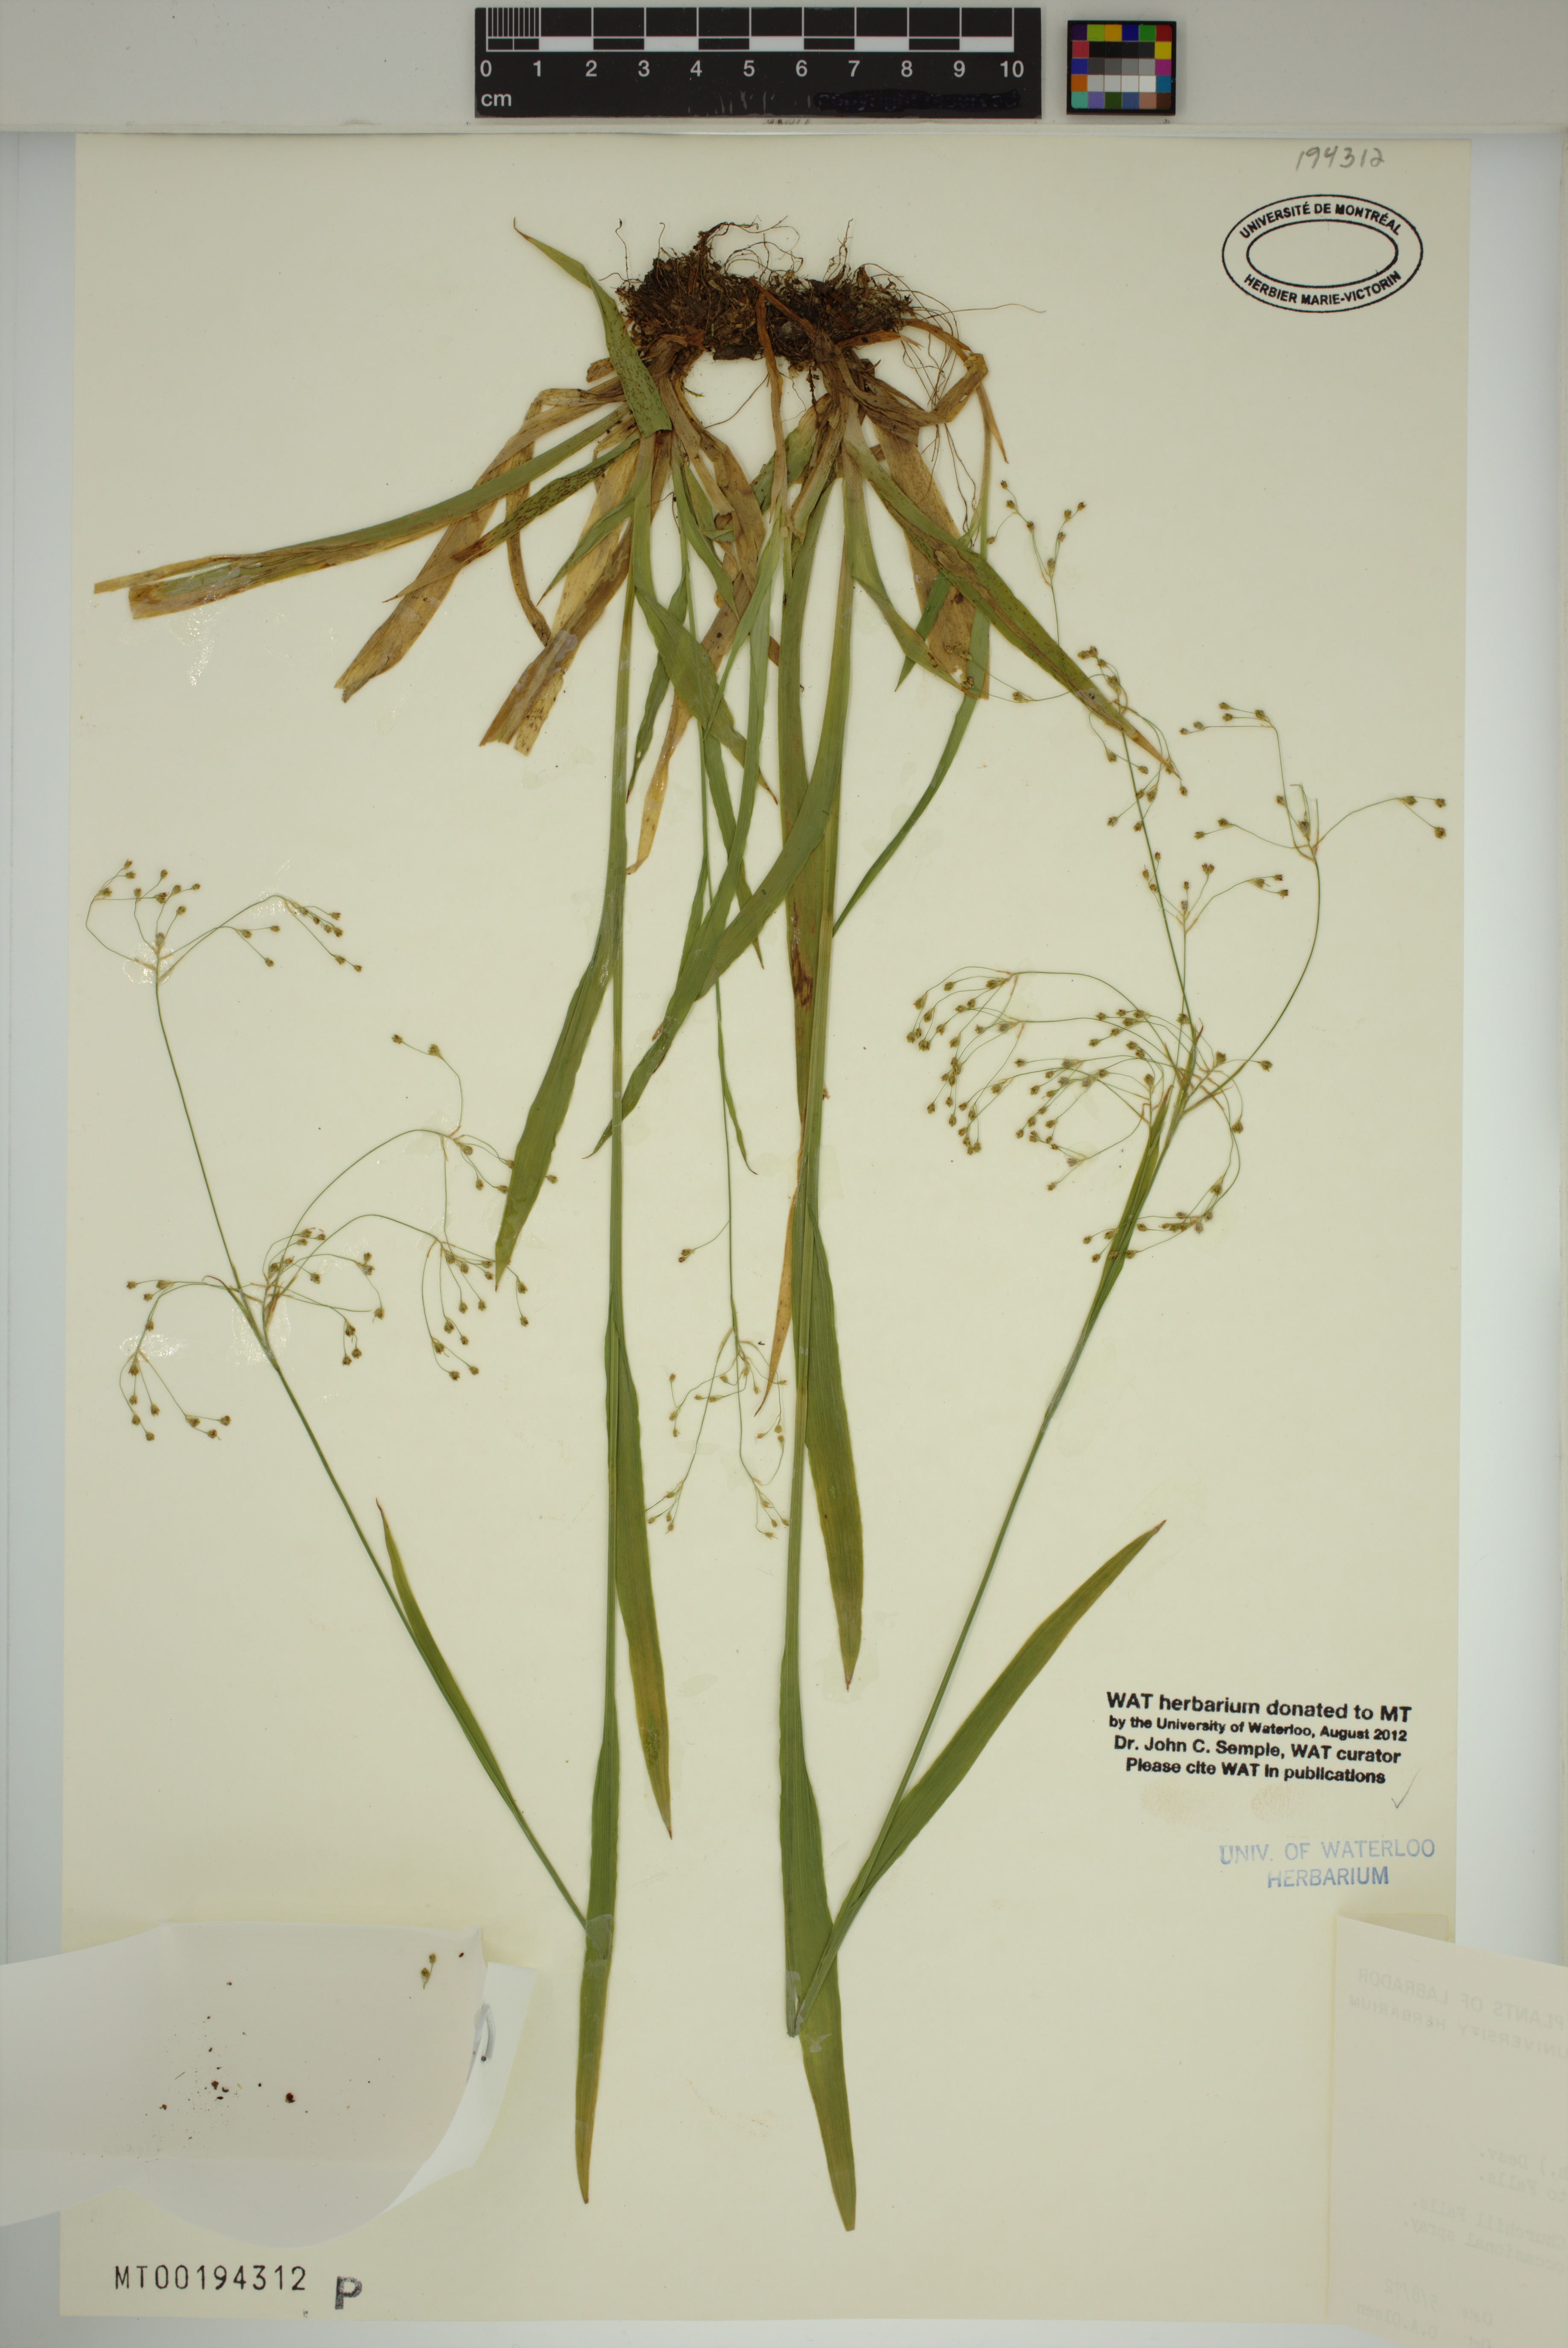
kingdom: Plantae
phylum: Tracheophyta
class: Liliopsida
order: Poales
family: Juncaceae
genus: Luzula
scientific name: Luzula parviflora
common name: Millet woodrush
